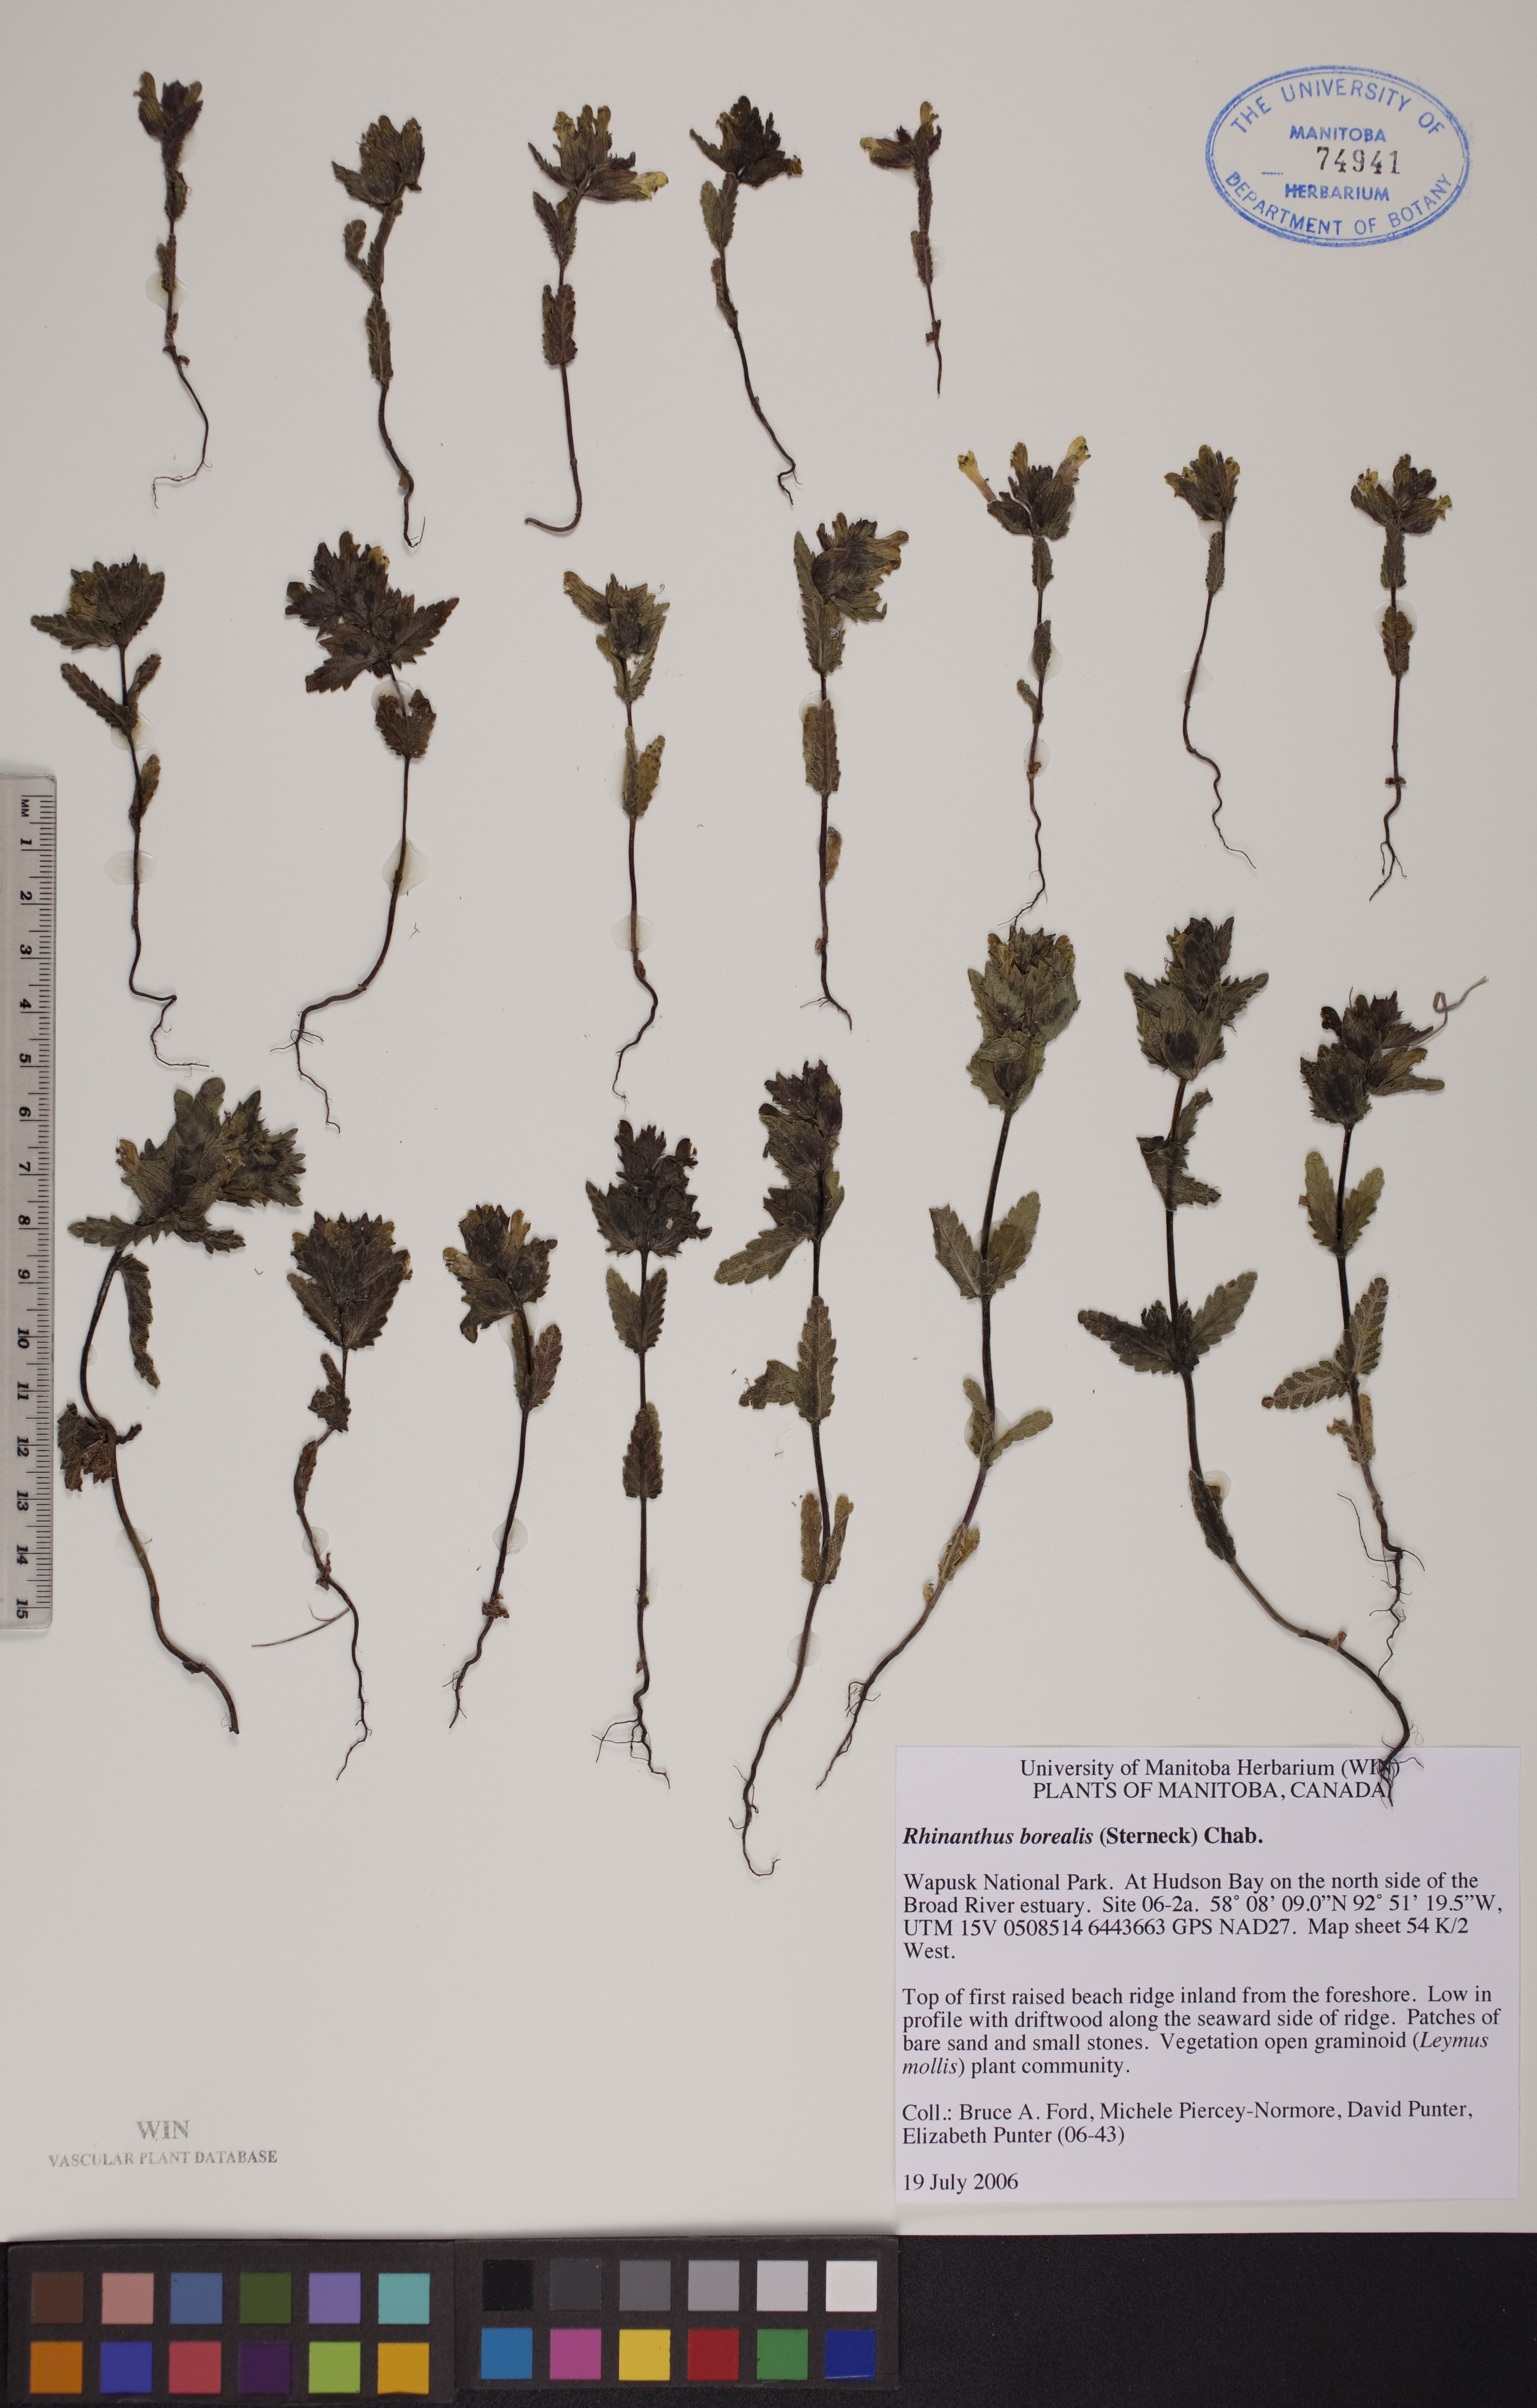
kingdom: Plantae
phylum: Tracheophyta
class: Magnoliopsida
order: Lamiales
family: Orobanchaceae
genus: Rhinanthus
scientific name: Rhinanthus groenlandicus
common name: Little yellow rattle
